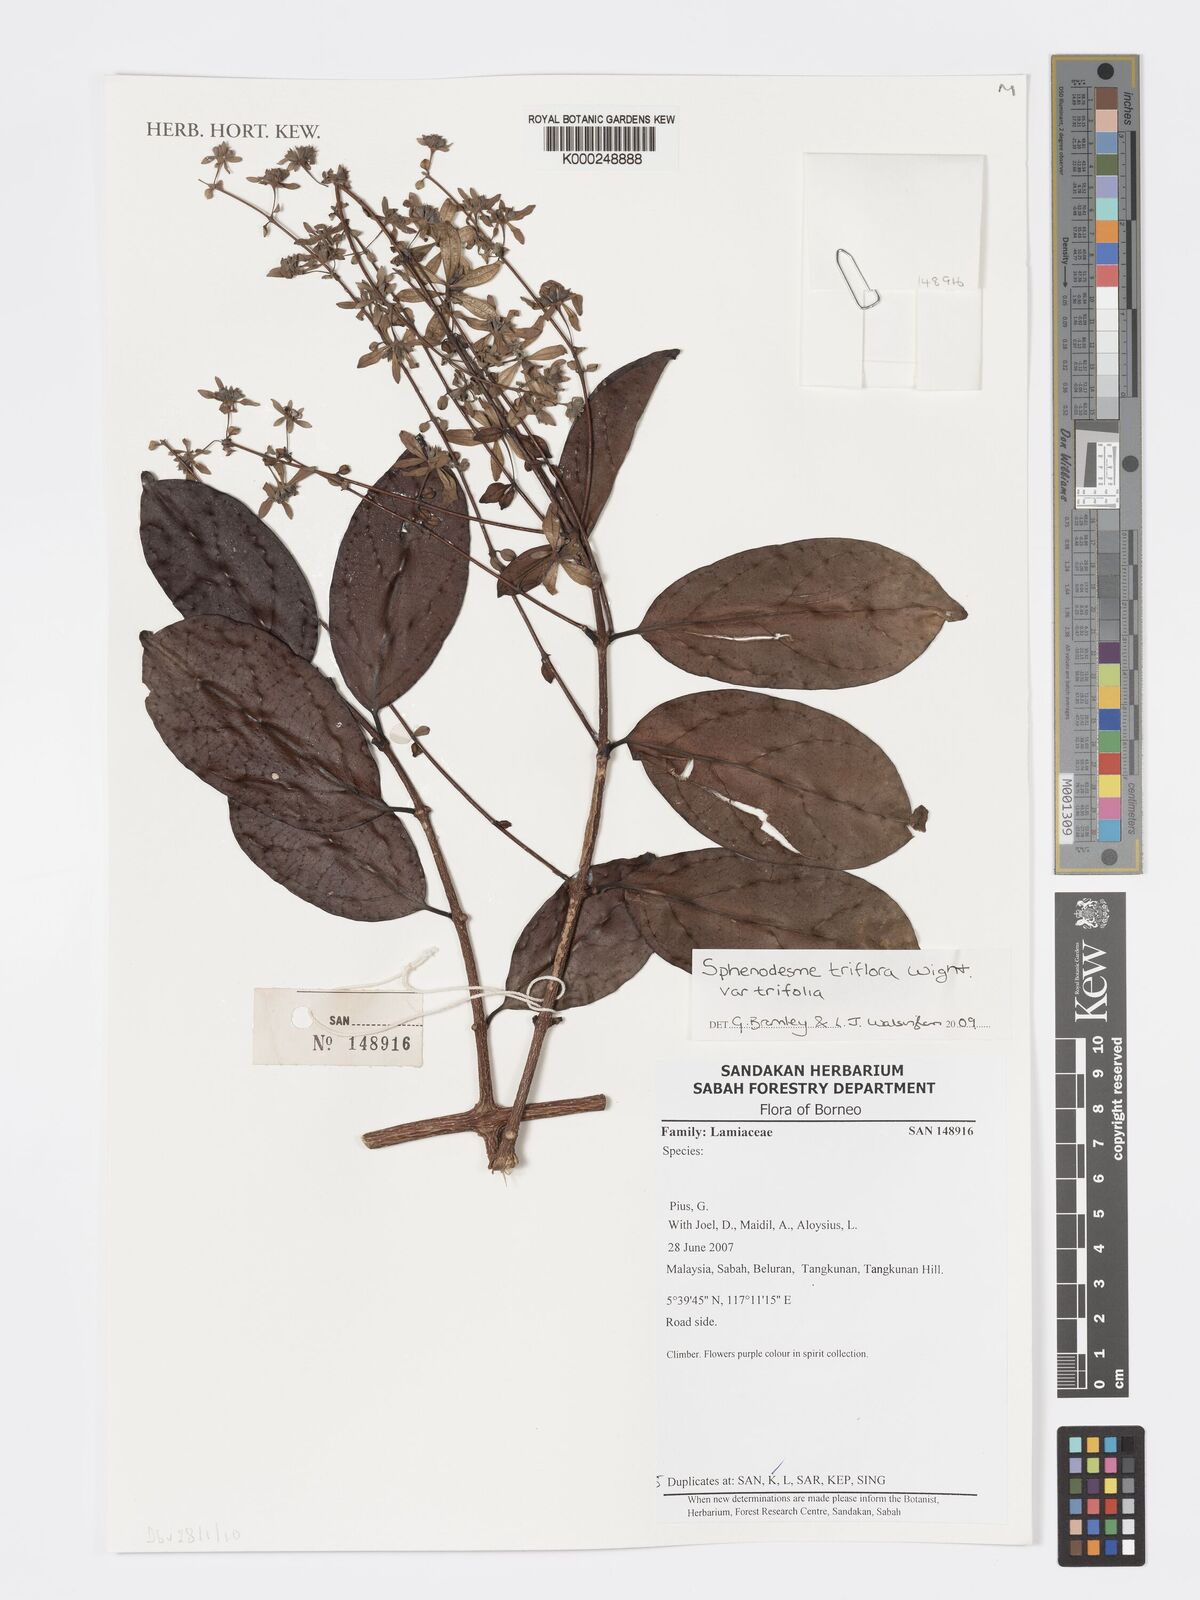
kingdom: Plantae
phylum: Tracheophyta
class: Magnoliopsida
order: Lamiales
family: Lamiaceae
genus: Sphenodesme
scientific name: Sphenodesme triflora
